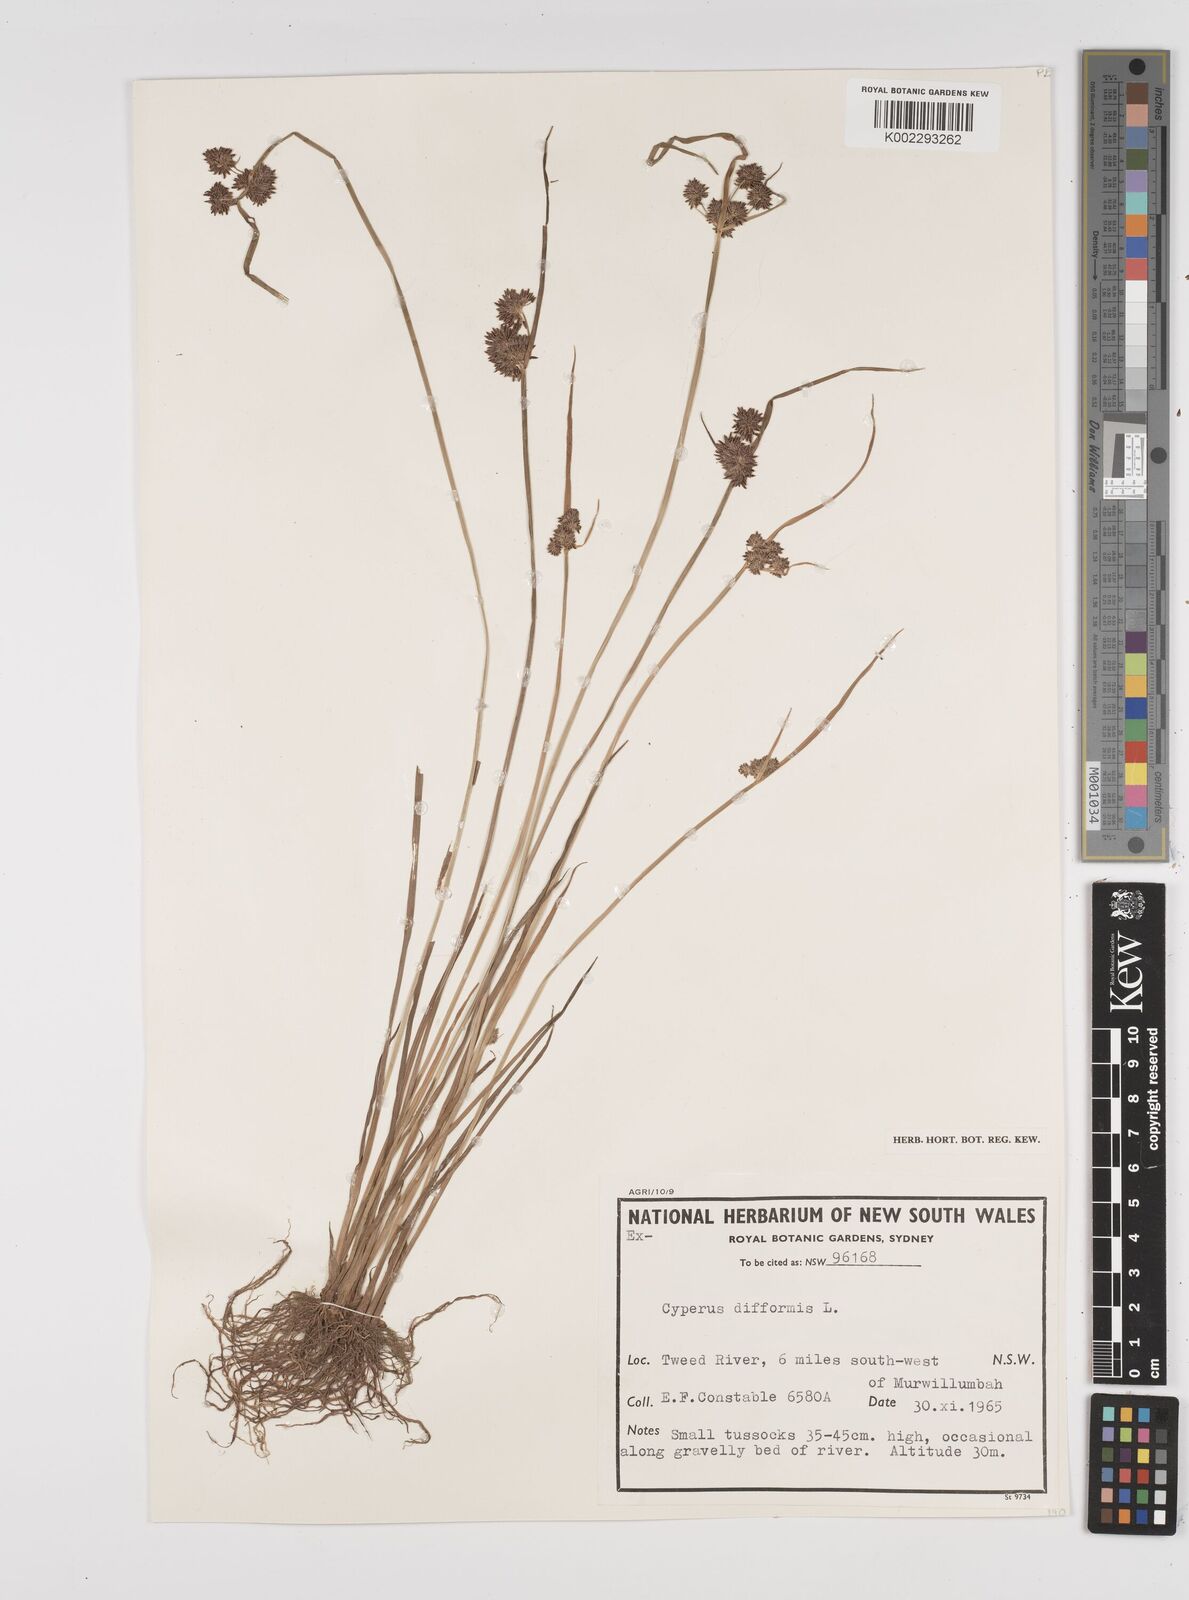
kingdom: Plantae
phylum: Tracheophyta
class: Liliopsida
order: Poales
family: Cyperaceae
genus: Cyperus
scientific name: Cyperus difformis
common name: Variable flatsedge
